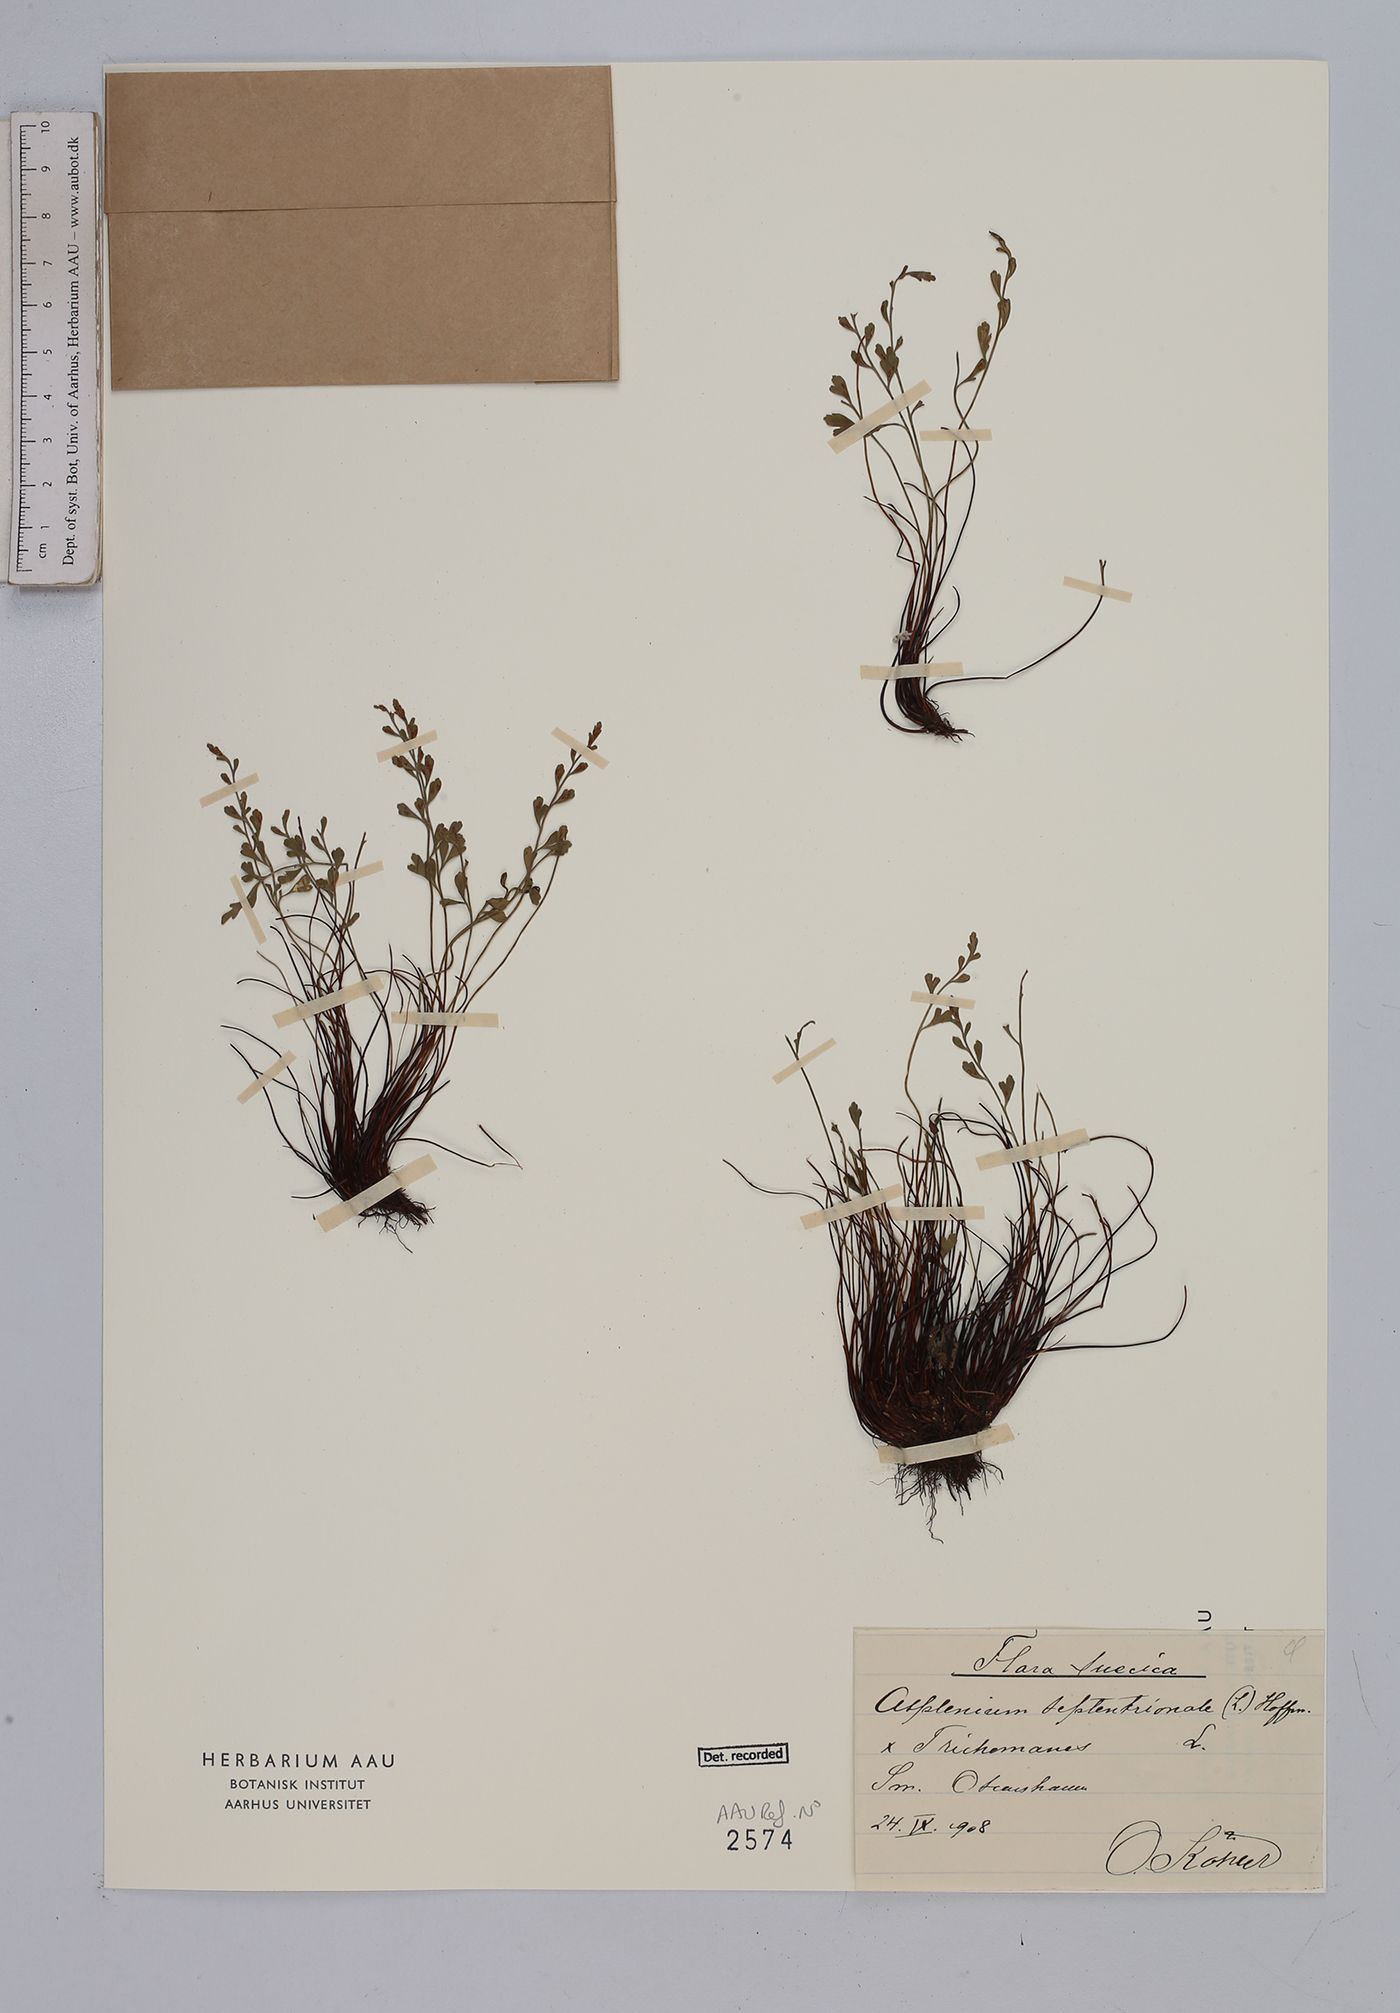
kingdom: Plantae
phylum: Tracheophyta
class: Polypodiopsida
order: Polypodiales
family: Aspleniaceae
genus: Asplenium
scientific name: Asplenium
